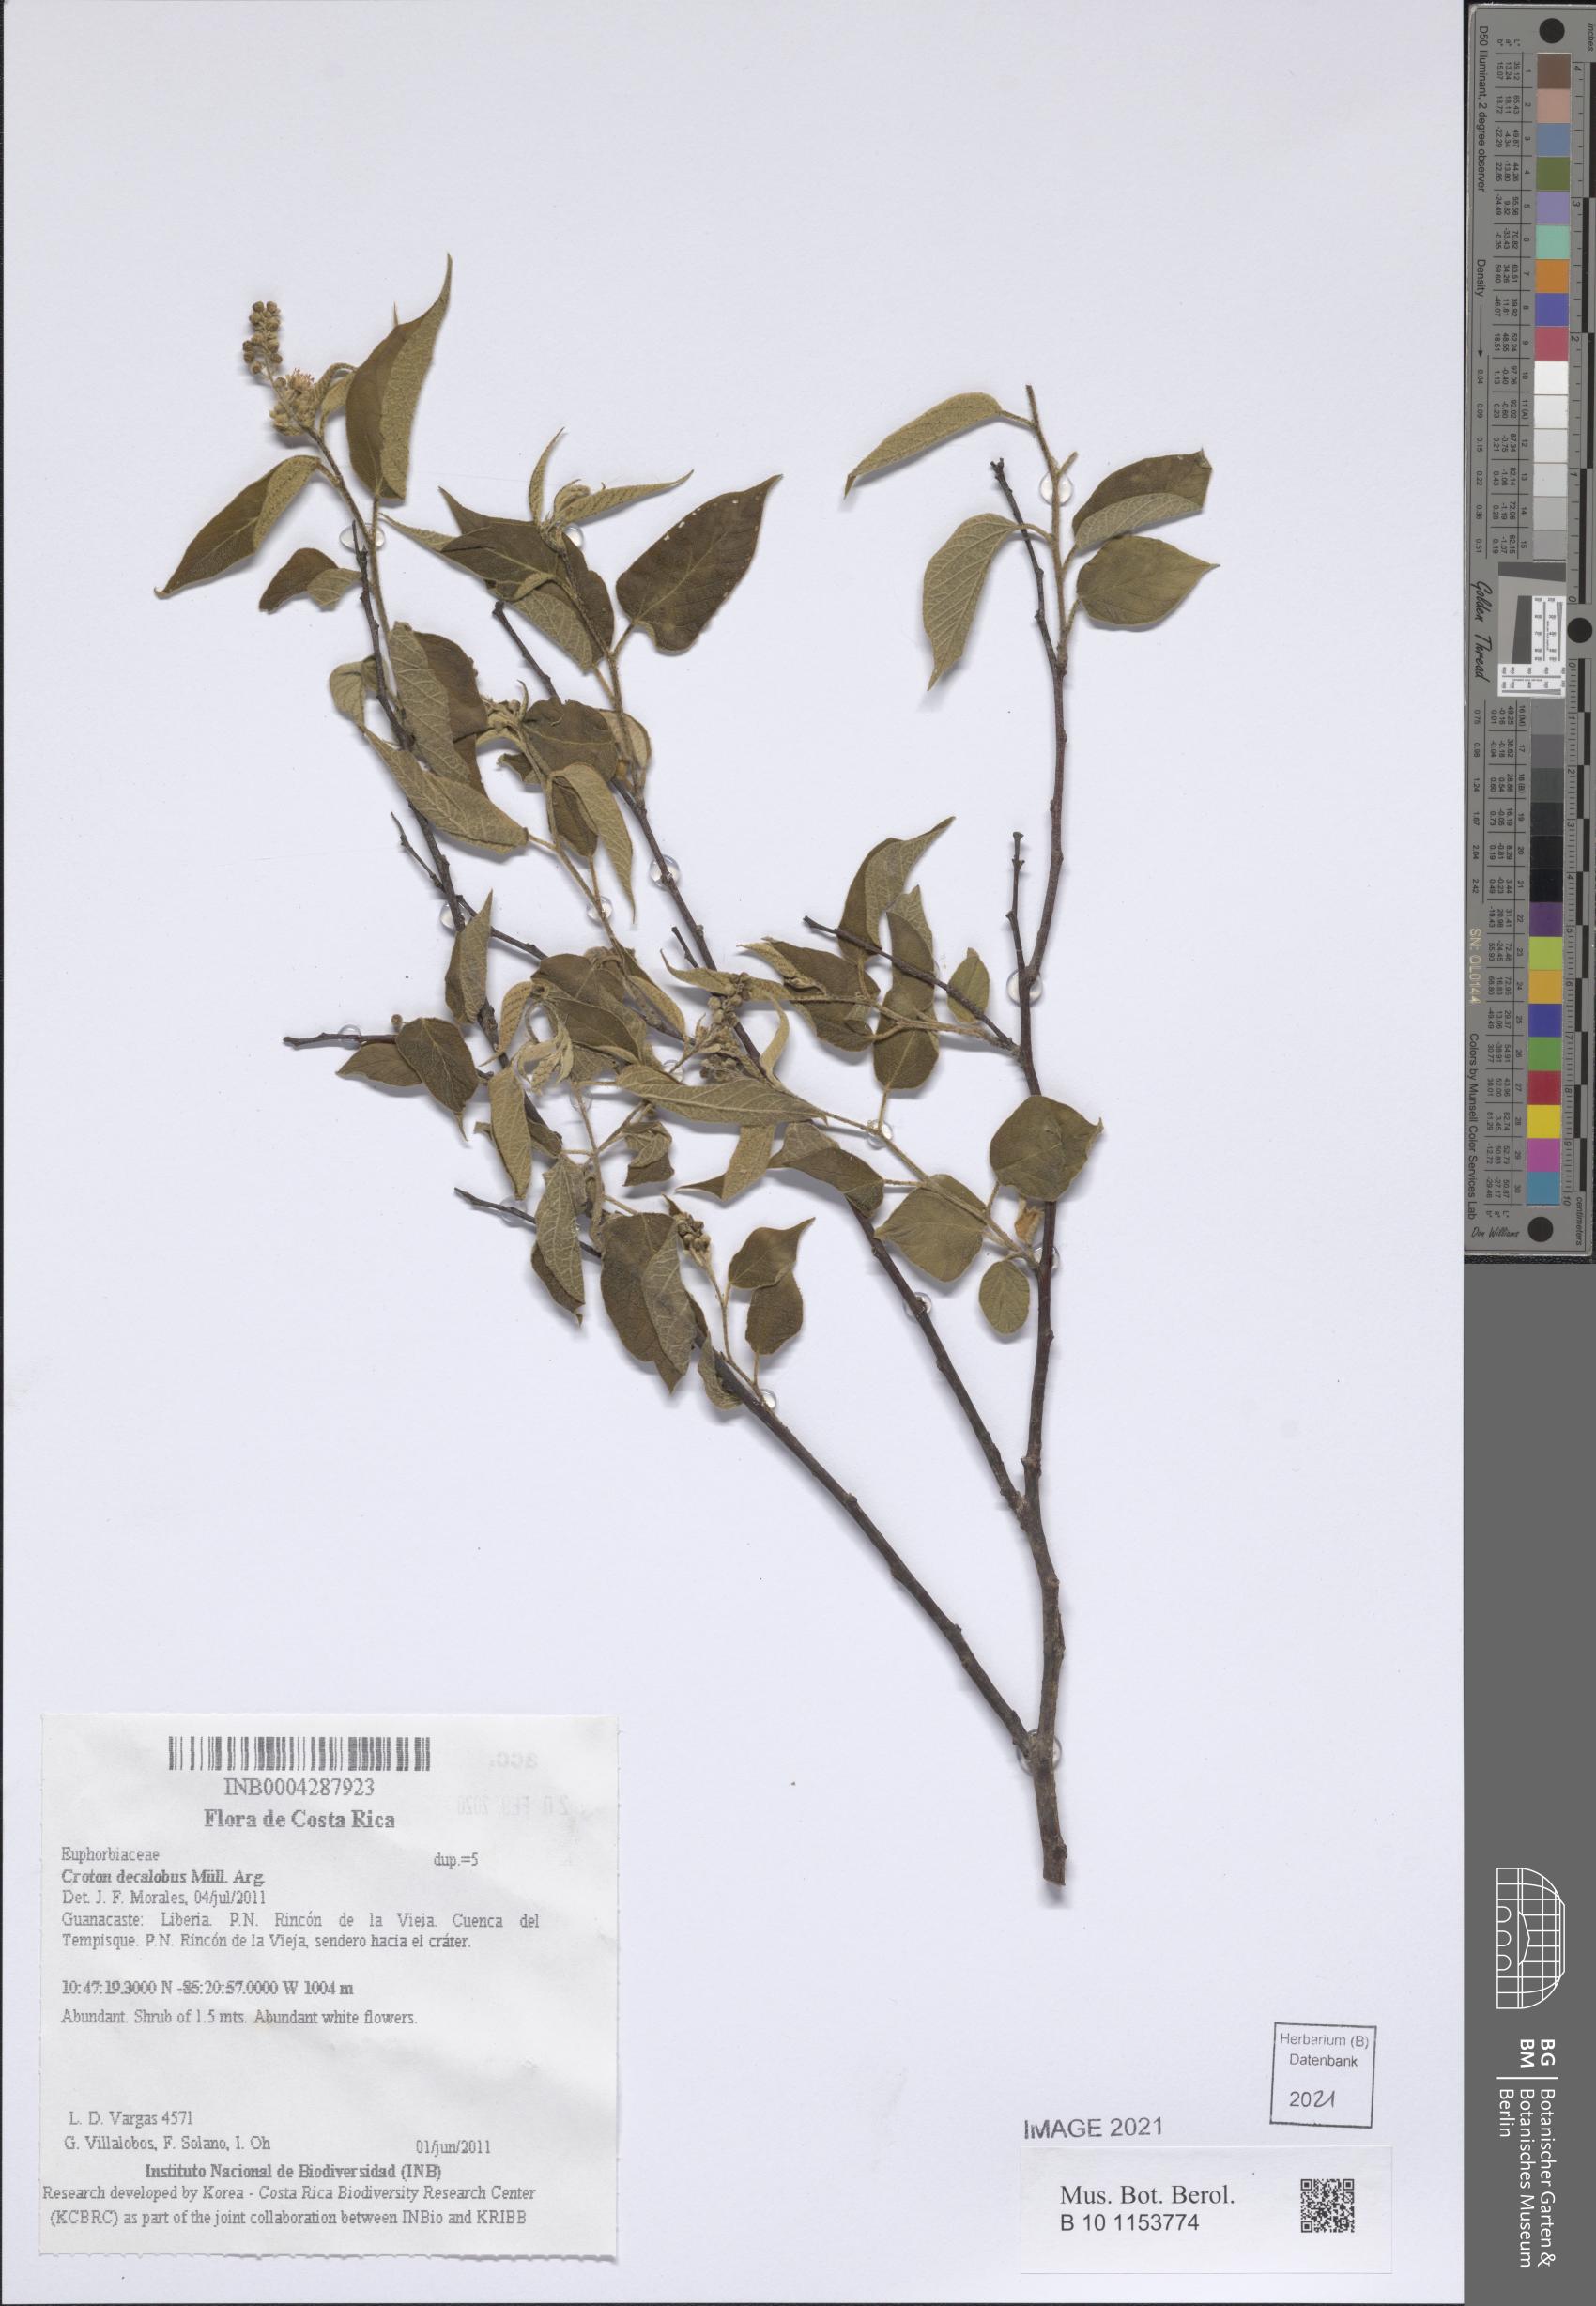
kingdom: Plantae
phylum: Tracheophyta
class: Magnoliopsida
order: Malpighiales
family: Euphorbiaceae
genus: Croton
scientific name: Croton decalobus
